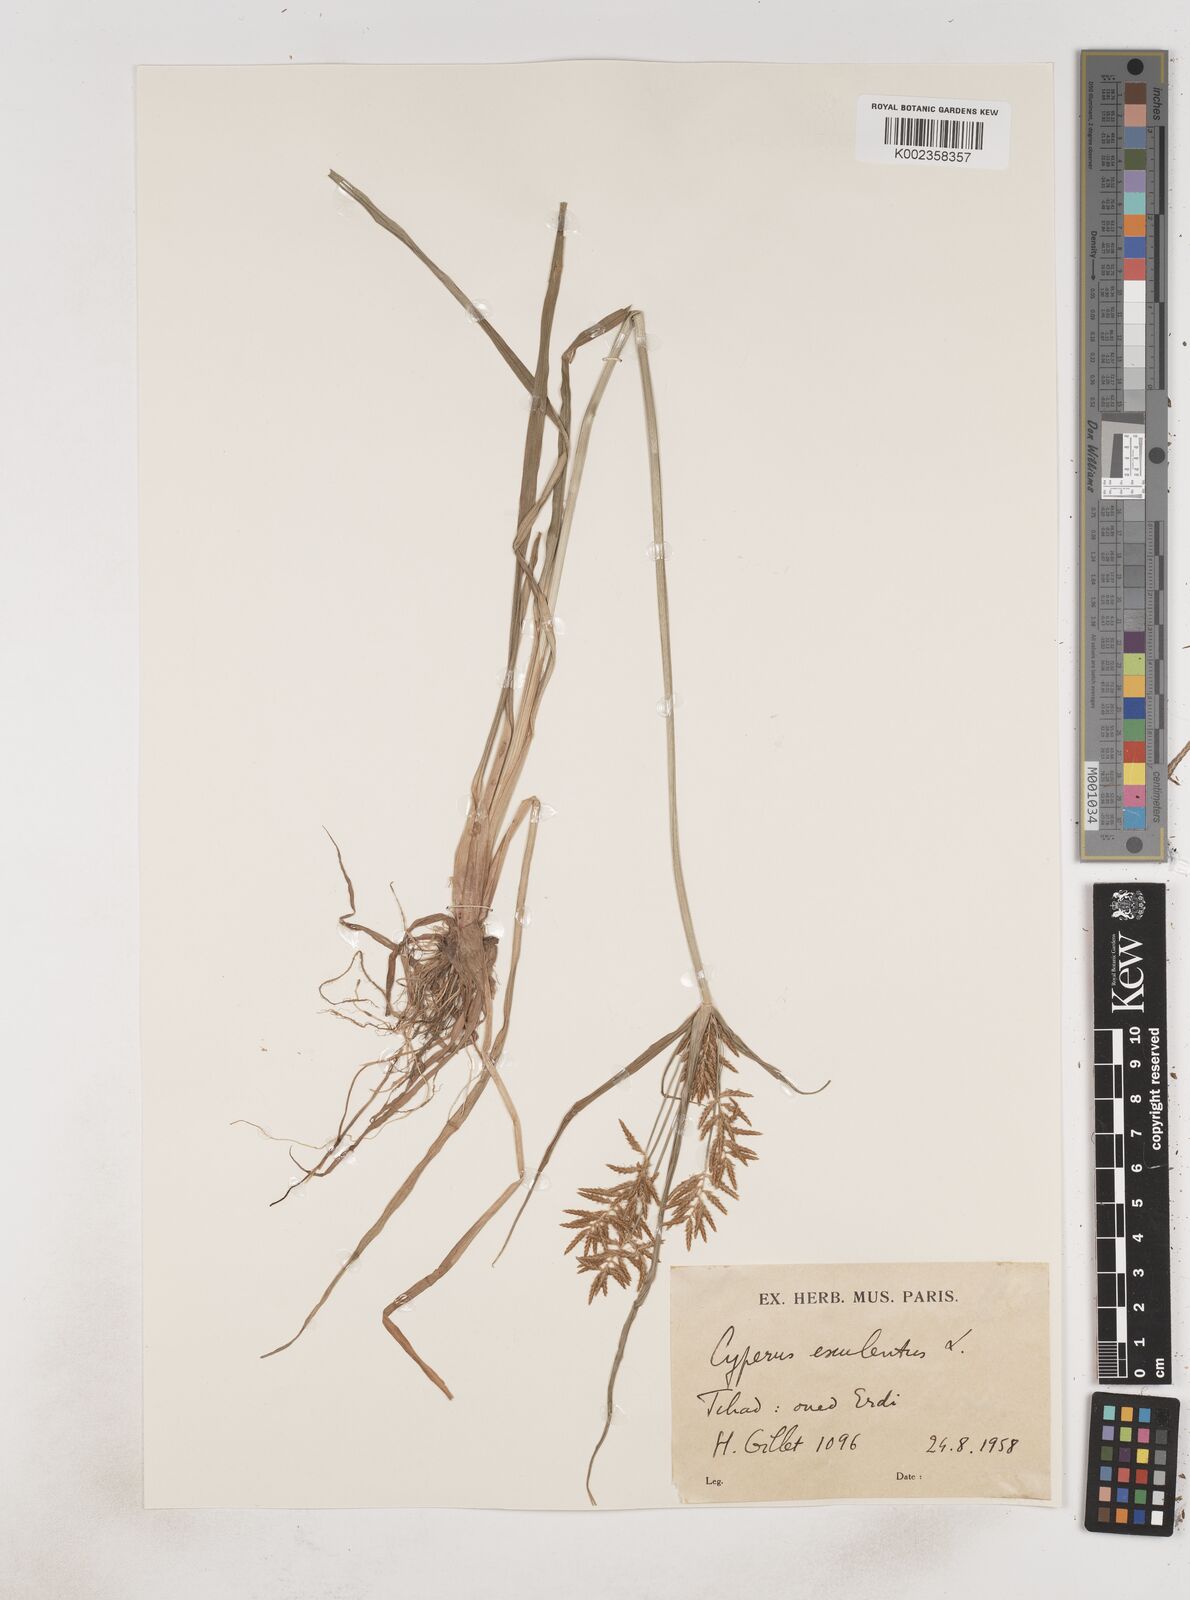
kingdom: Plantae
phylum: Tracheophyta
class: Liliopsida
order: Poales
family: Cyperaceae
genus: Cyperus
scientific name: Cyperus esculentus
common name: Yellow nutsedge
